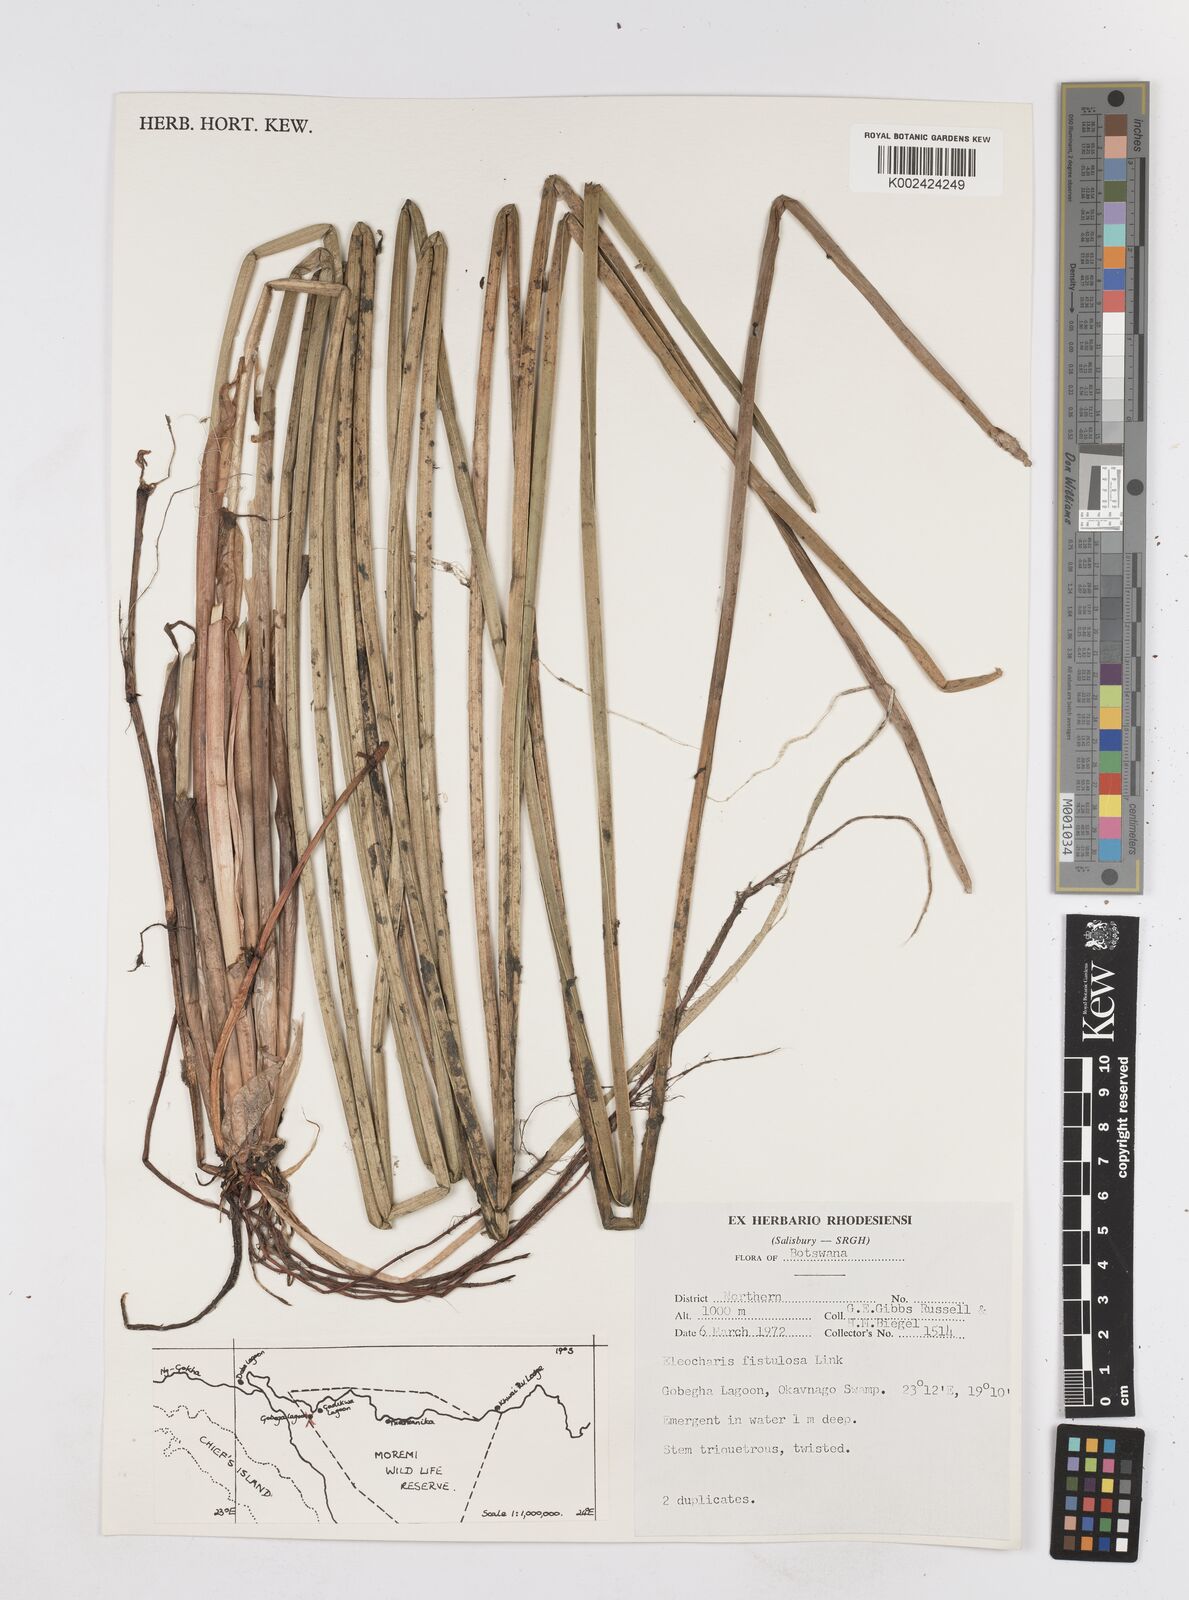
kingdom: Plantae
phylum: Tracheophyta
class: Liliopsida
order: Poales
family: Cyperaceae
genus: Eleocharis
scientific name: Eleocharis acutangula
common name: Acute spikerush
